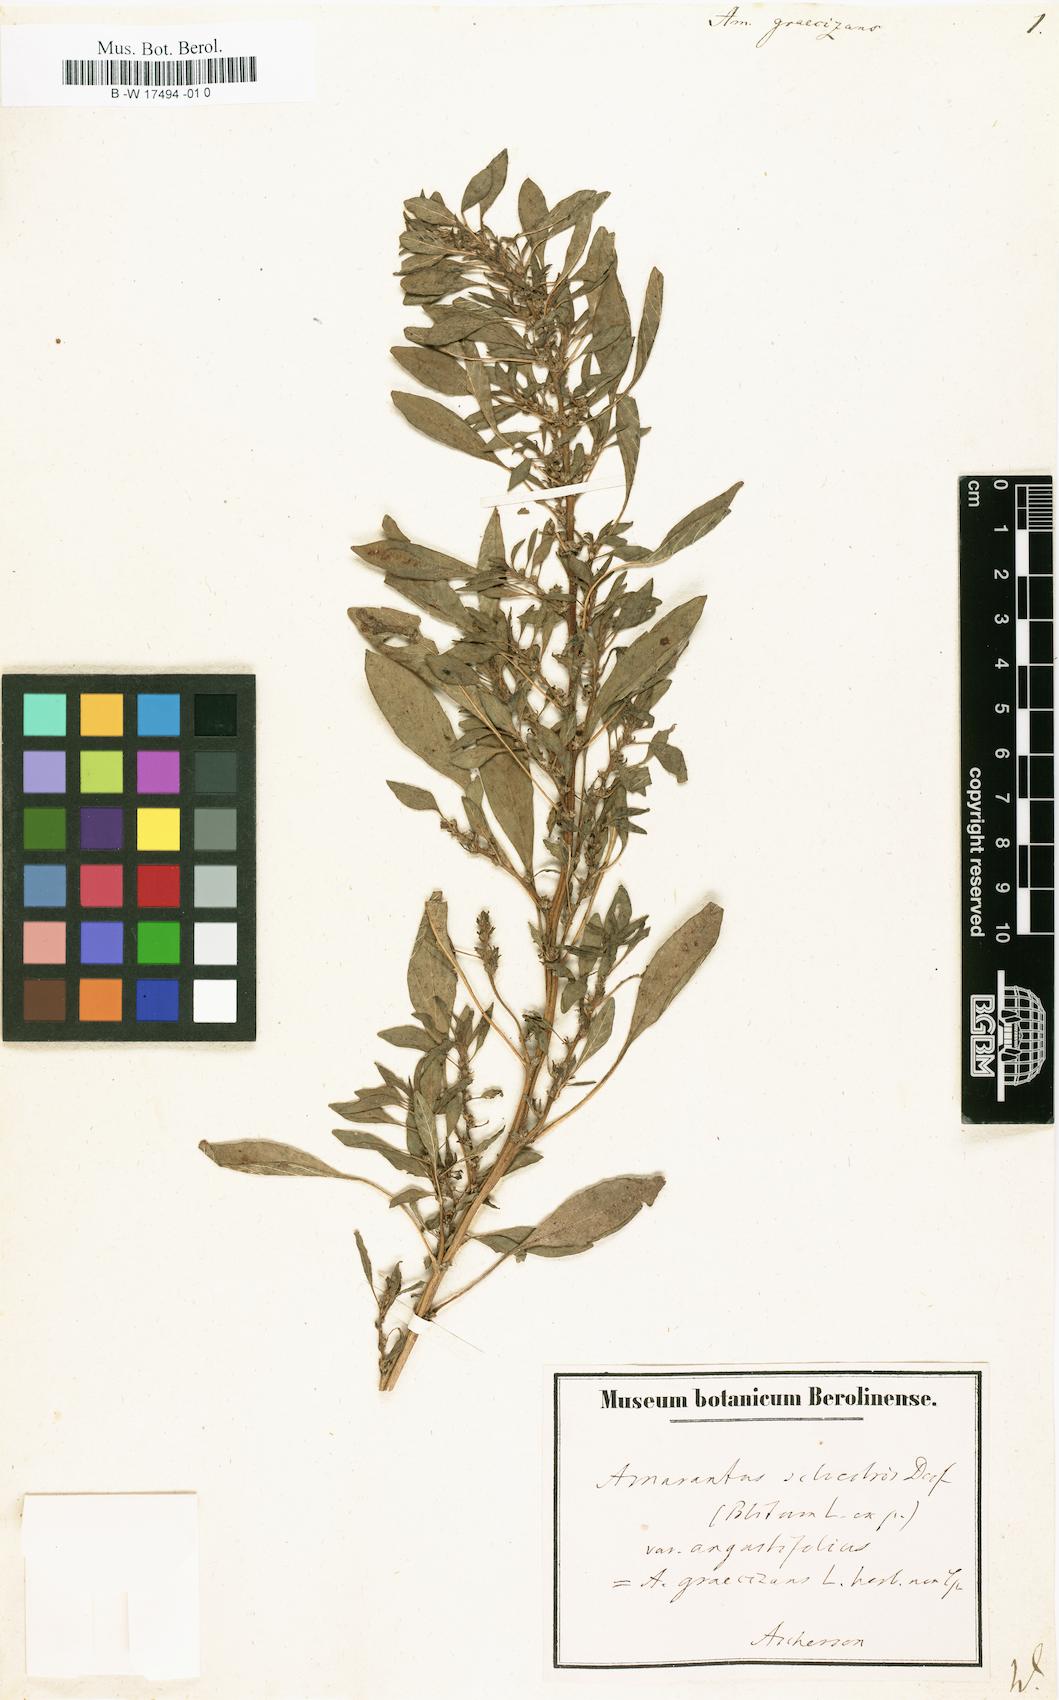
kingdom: Plantae
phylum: Tracheophyta
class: Magnoliopsida
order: Caryophyllales
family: Amaranthaceae
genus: Amaranthus
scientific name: Amaranthus graecizans
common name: Mediterranean amaranth
